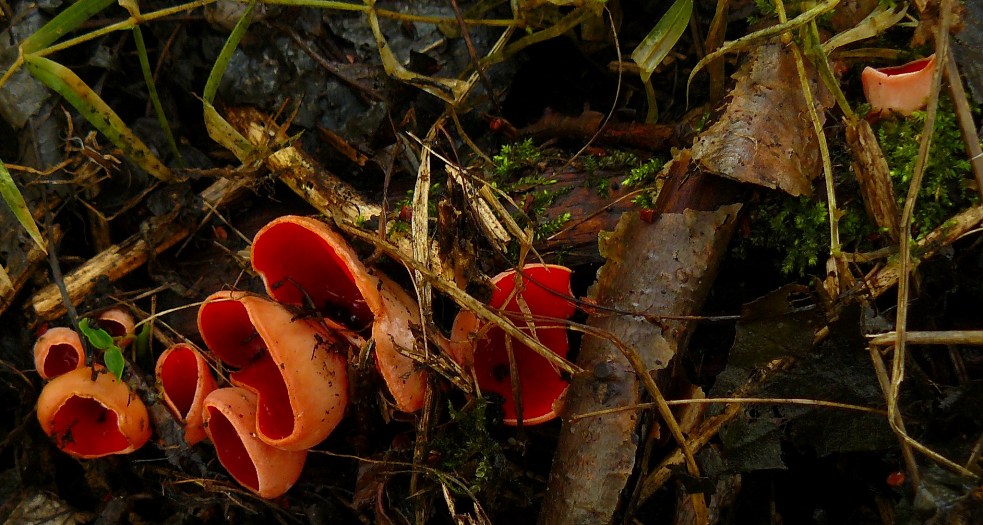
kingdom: Fungi
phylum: Ascomycota
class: Pezizomycetes
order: Pezizales
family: Sarcoscyphaceae
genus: Sarcoscypha
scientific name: Sarcoscypha austriaca
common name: krølhåret pragtbæger
